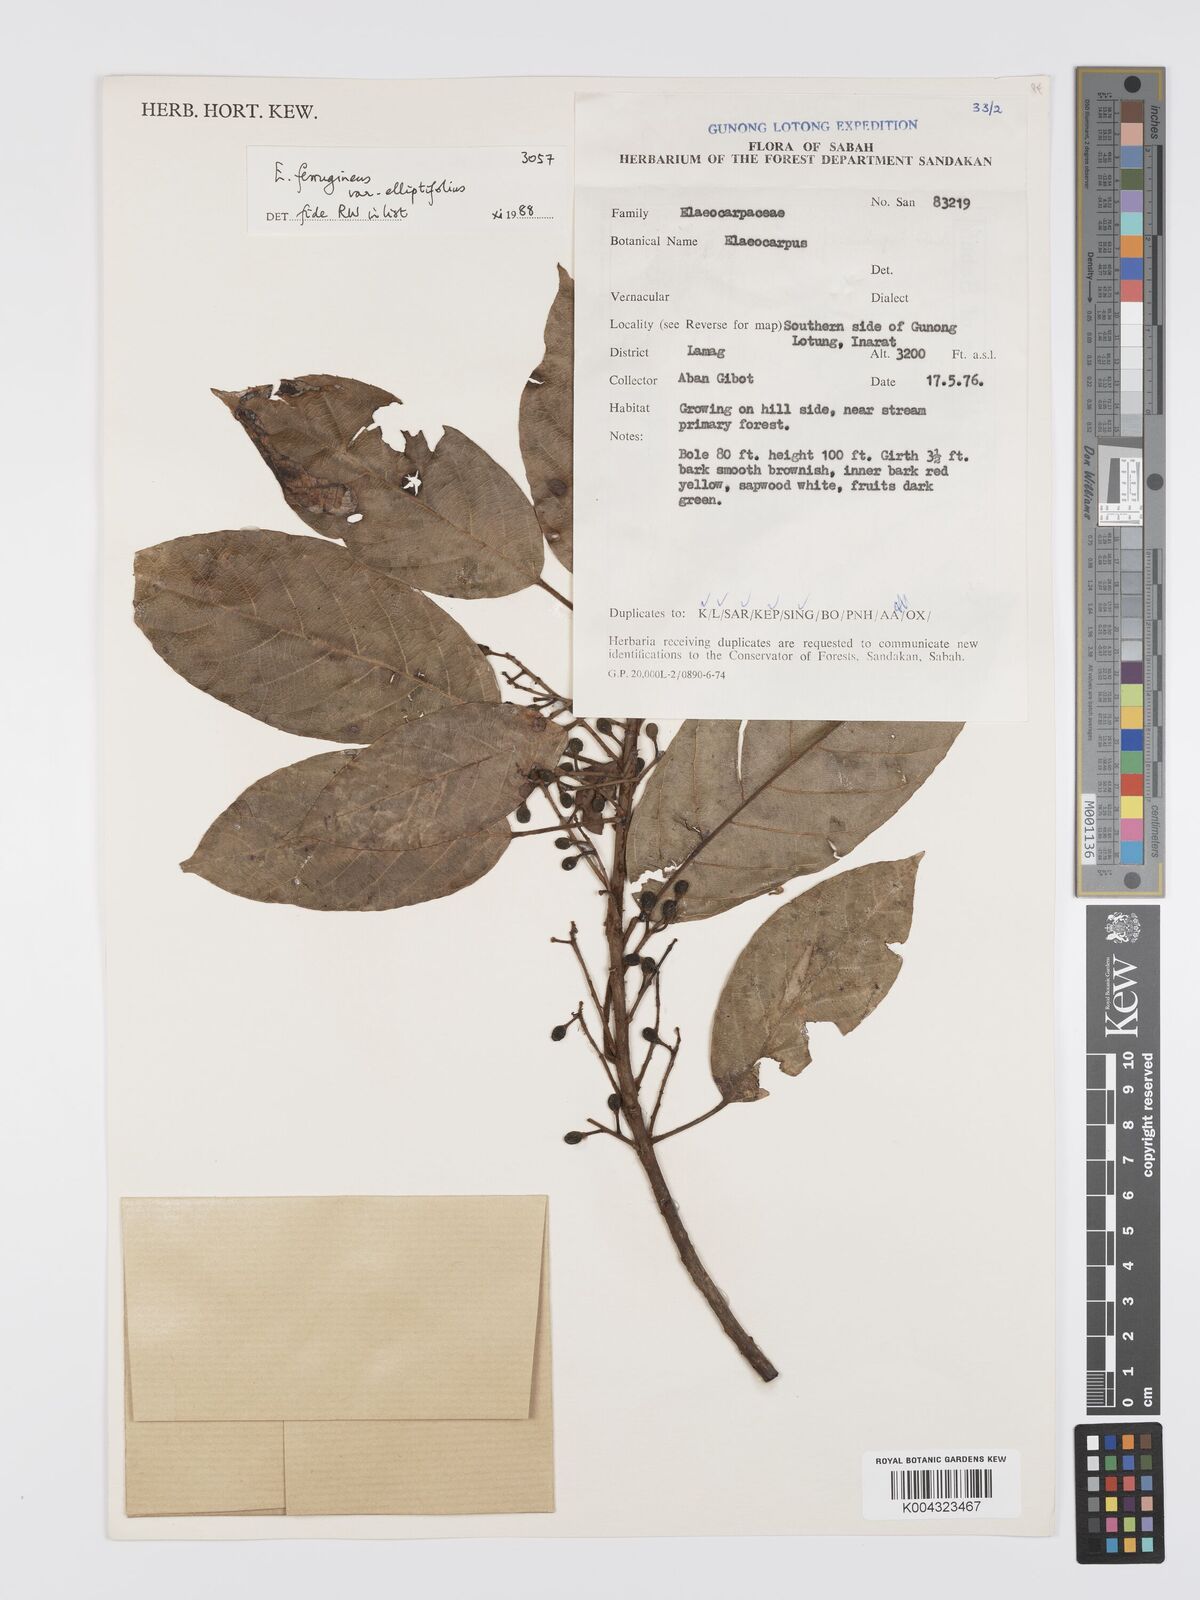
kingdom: Plantae
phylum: Tracheophyta
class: Magnoliopsida
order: Oxalidales
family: Elaeocarpaceae
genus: Elaeocarpus
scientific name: Elaeocarpus ferrugineus
